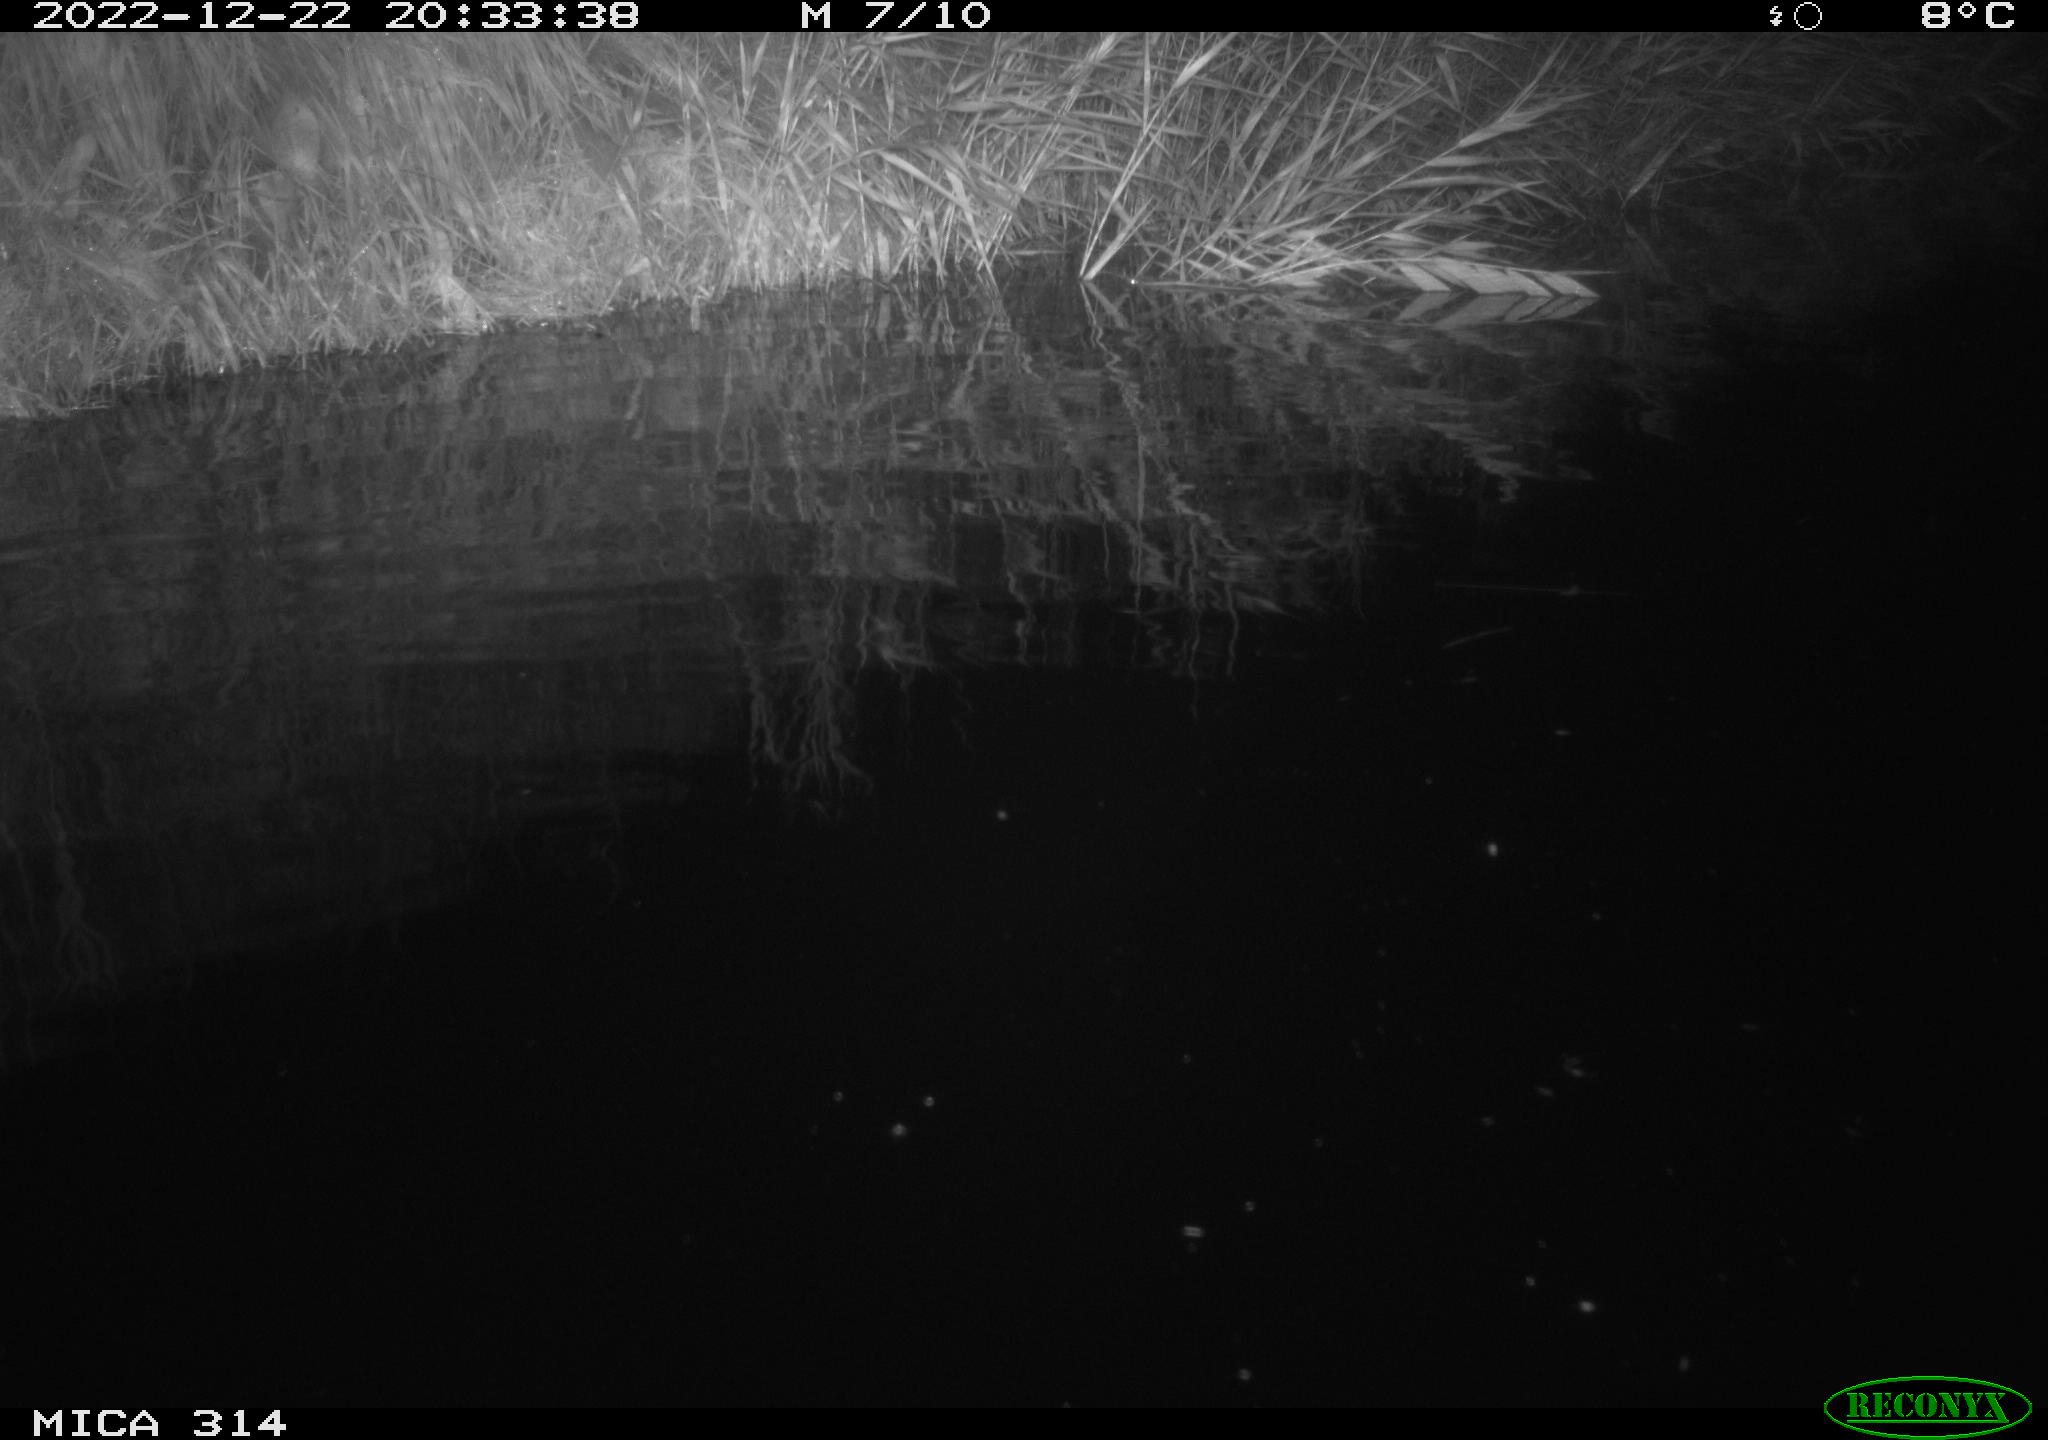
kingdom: Animalia
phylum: Chordata
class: Mammalia
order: Rodentia
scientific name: Rodentia
